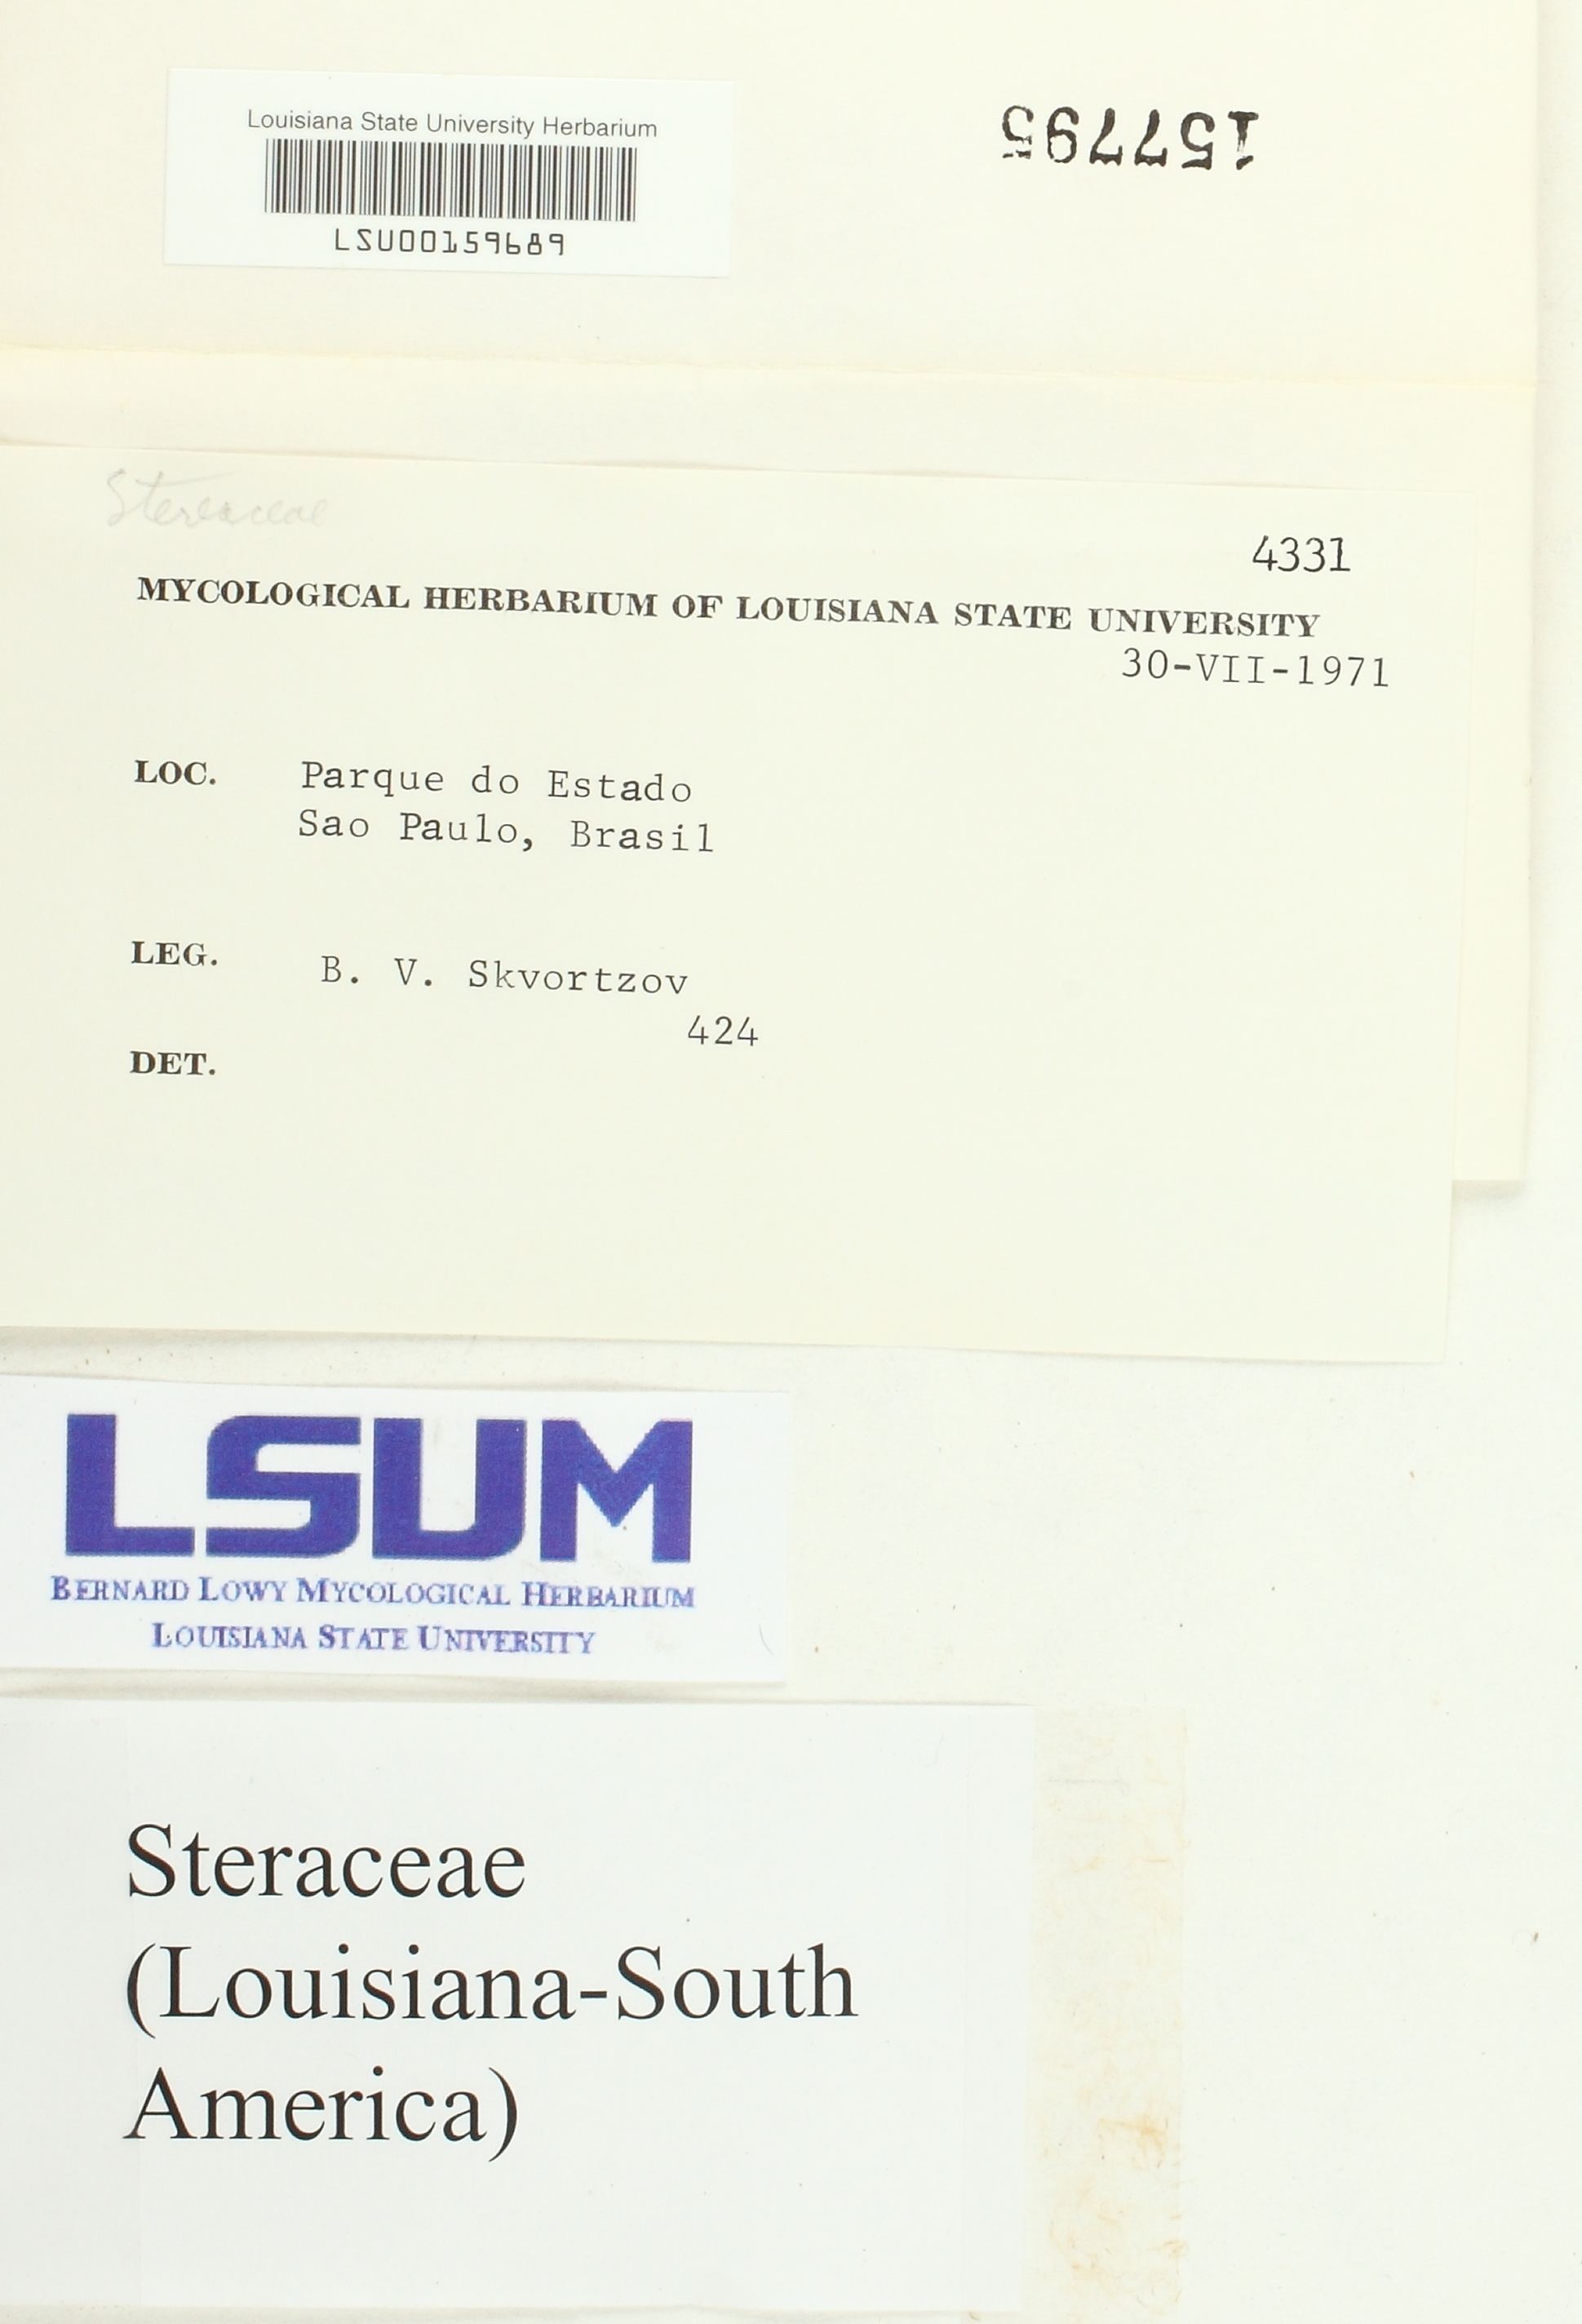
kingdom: Fungi
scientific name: Fungi
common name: Fungi
